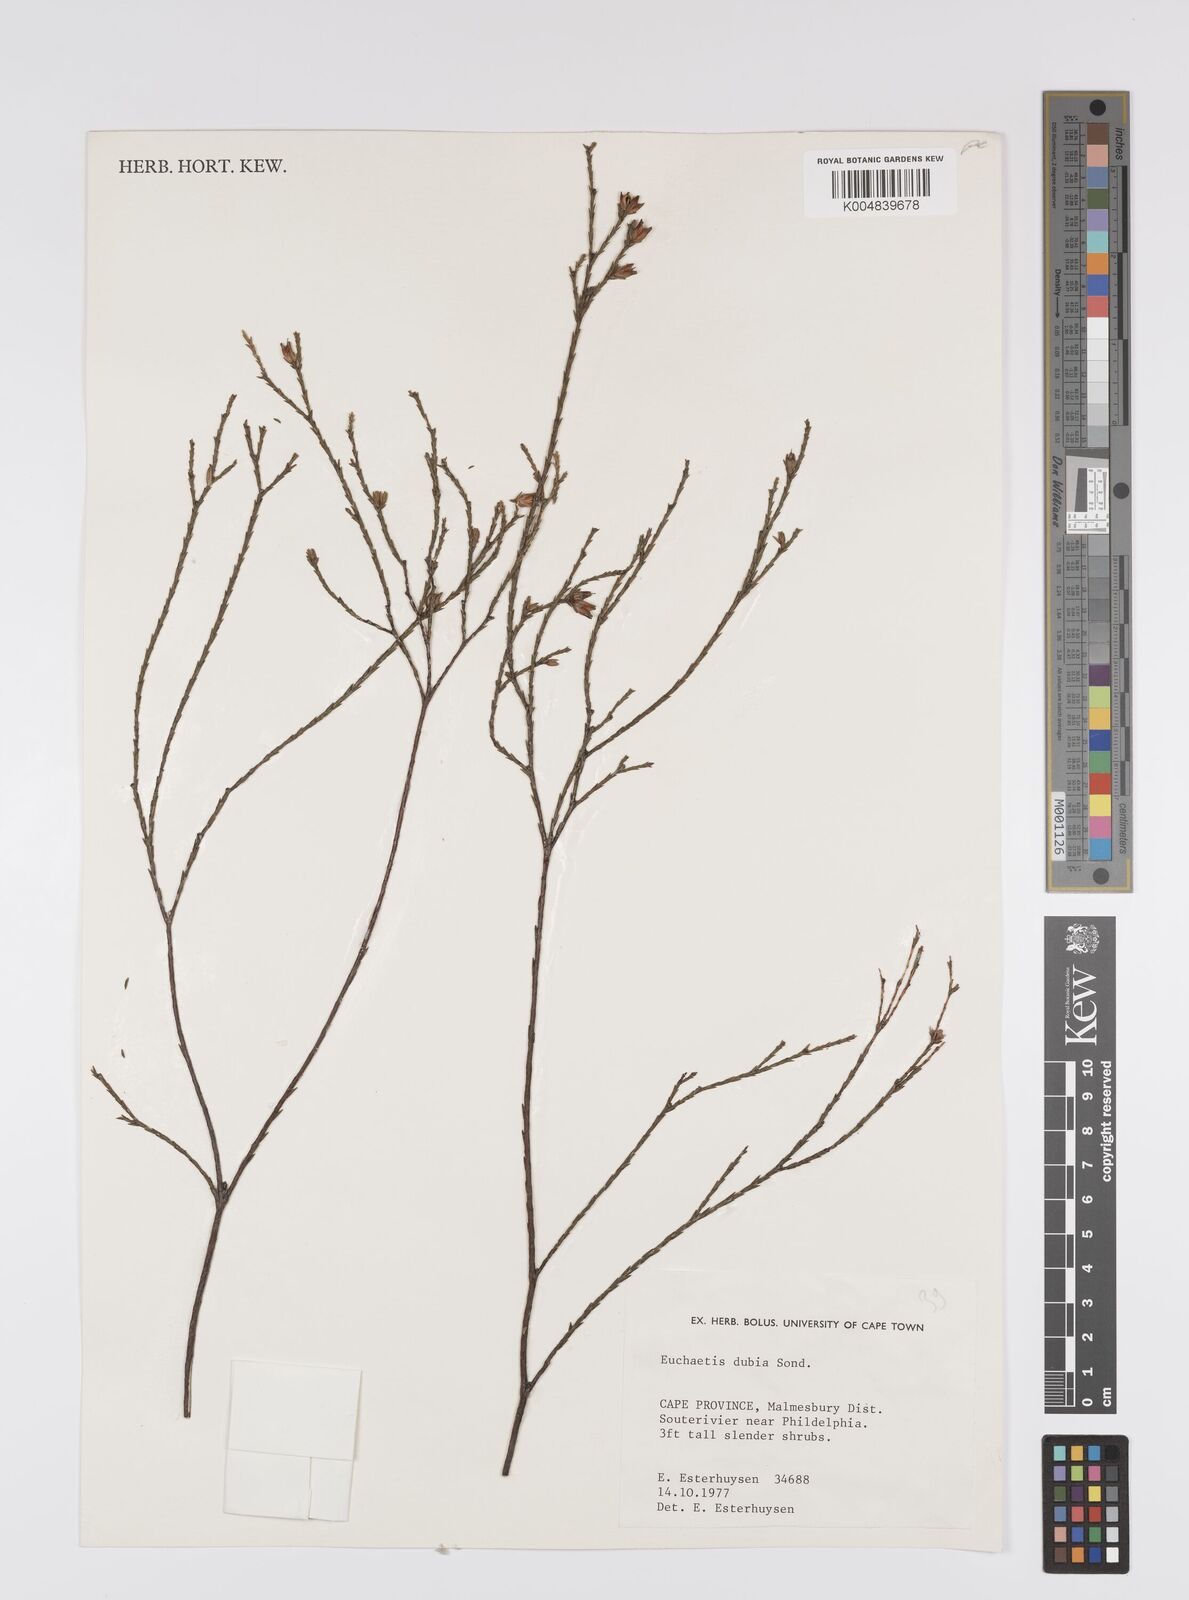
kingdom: Plantae
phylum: Tracheophyta
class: Magnoliopsida
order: Sapindales
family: Rutaceae
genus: Macrostylis
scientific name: Macrostylis cassiopoides
